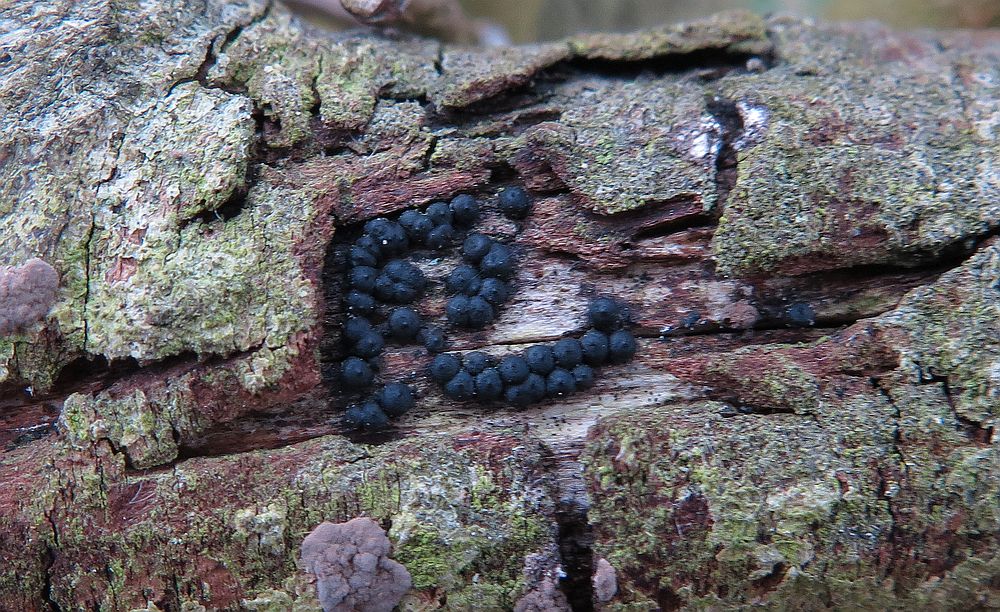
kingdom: Fungi
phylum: Ascomycota
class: Sordariomycetes
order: Xylariales
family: Xylariaceae
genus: Rosellinia
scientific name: Rosellinia marcucciana
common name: måtteløs kulkaviar
